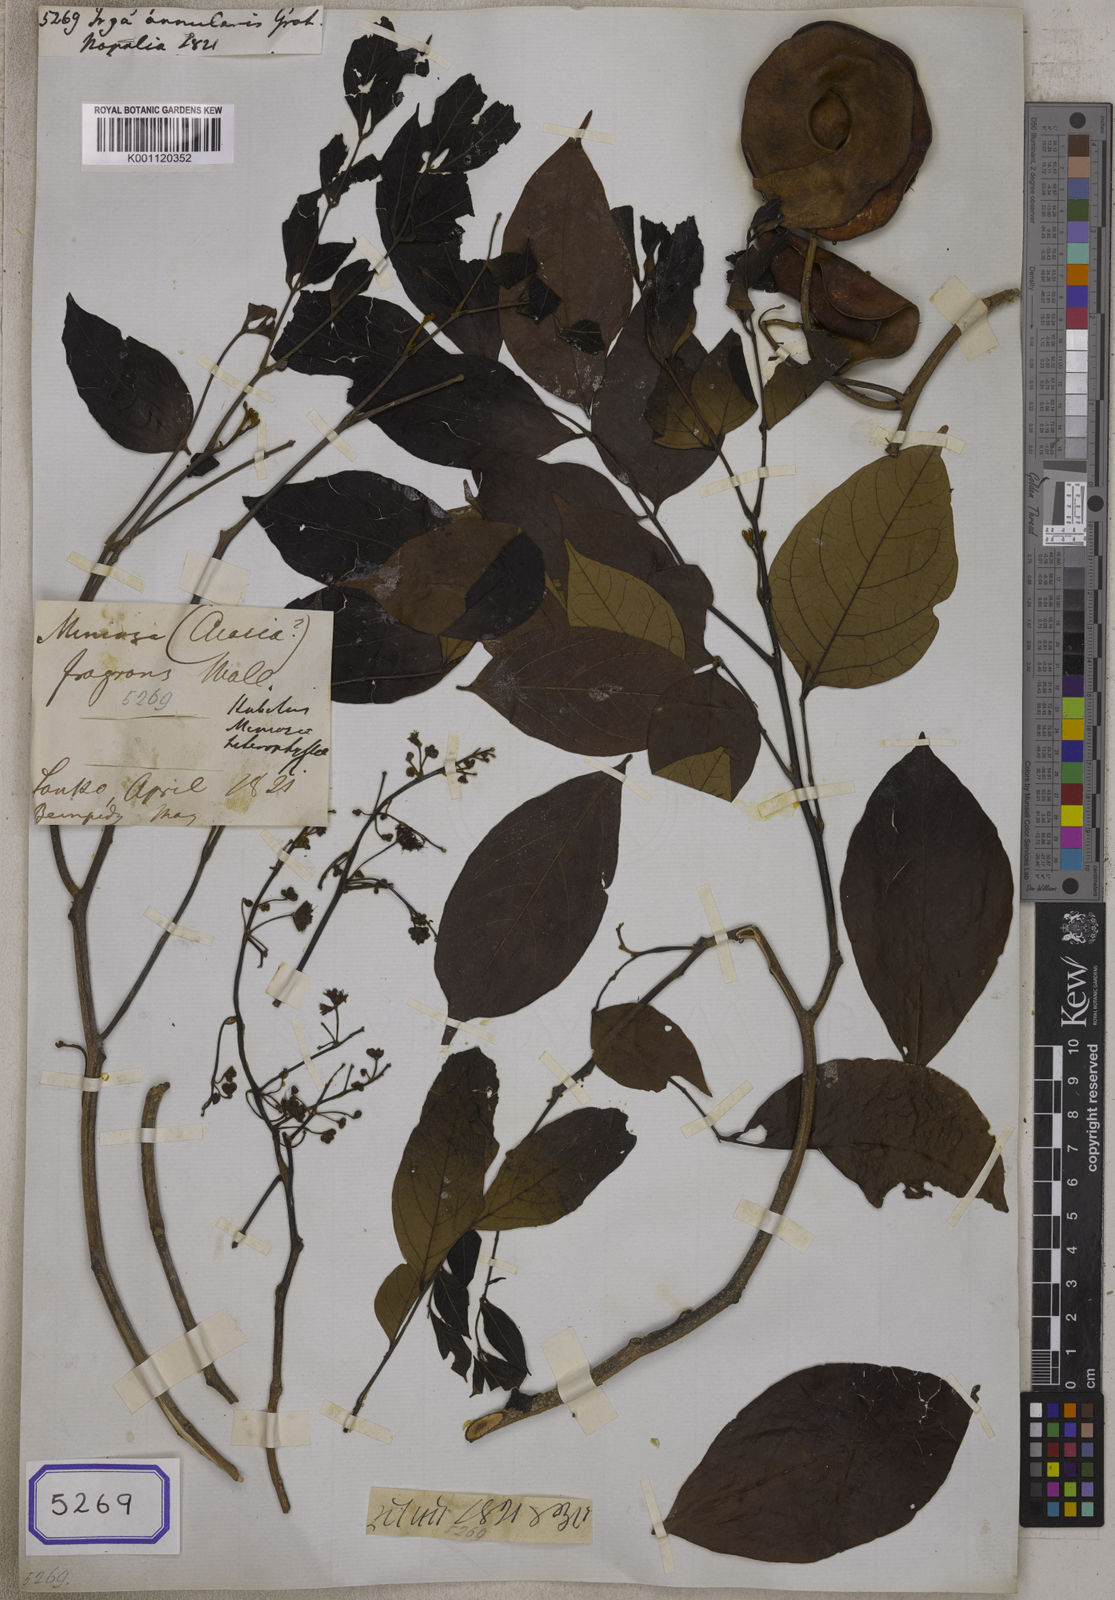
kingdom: Plantae
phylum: Tracheophyta
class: Magnoliopsida
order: Fabales
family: Fabaceae
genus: Archidendron
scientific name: Archidendron bigeminum
